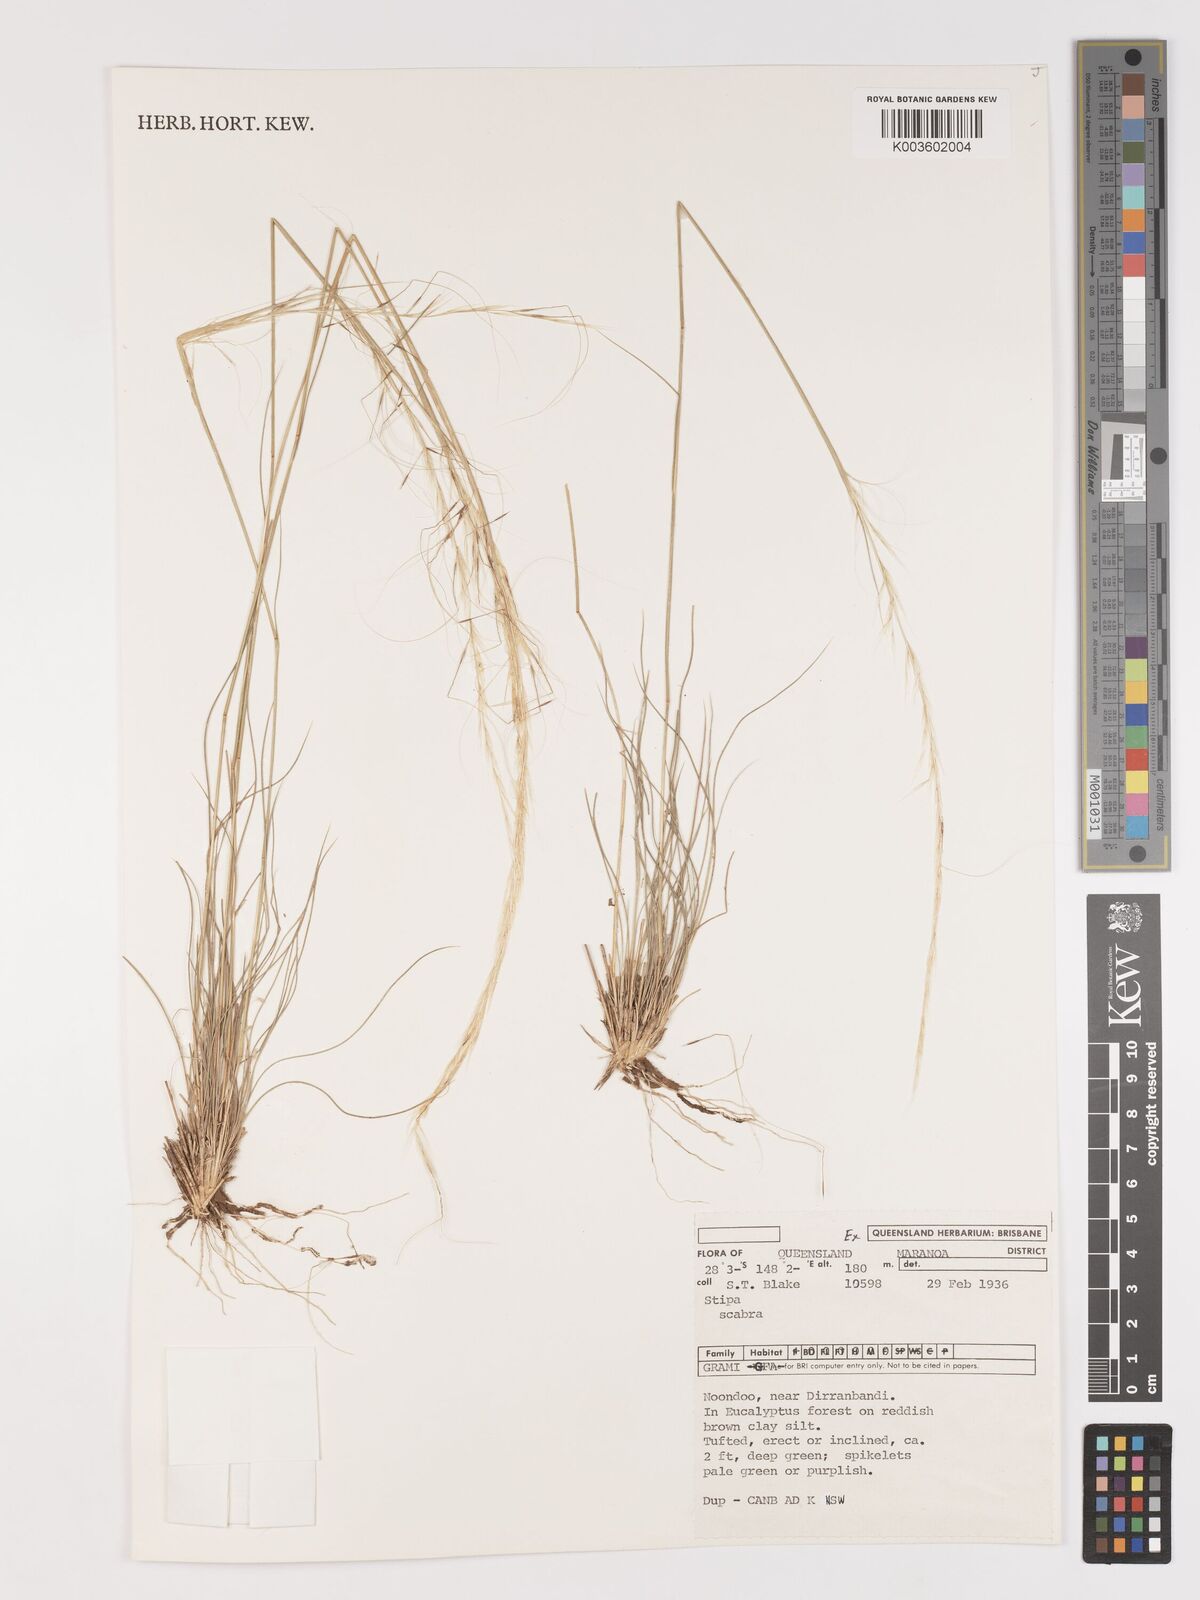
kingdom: Plantae
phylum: Tracheophyta
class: Liliopsida
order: Poales
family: Poaceae
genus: Austrostipa
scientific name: Austrostipa scabra
